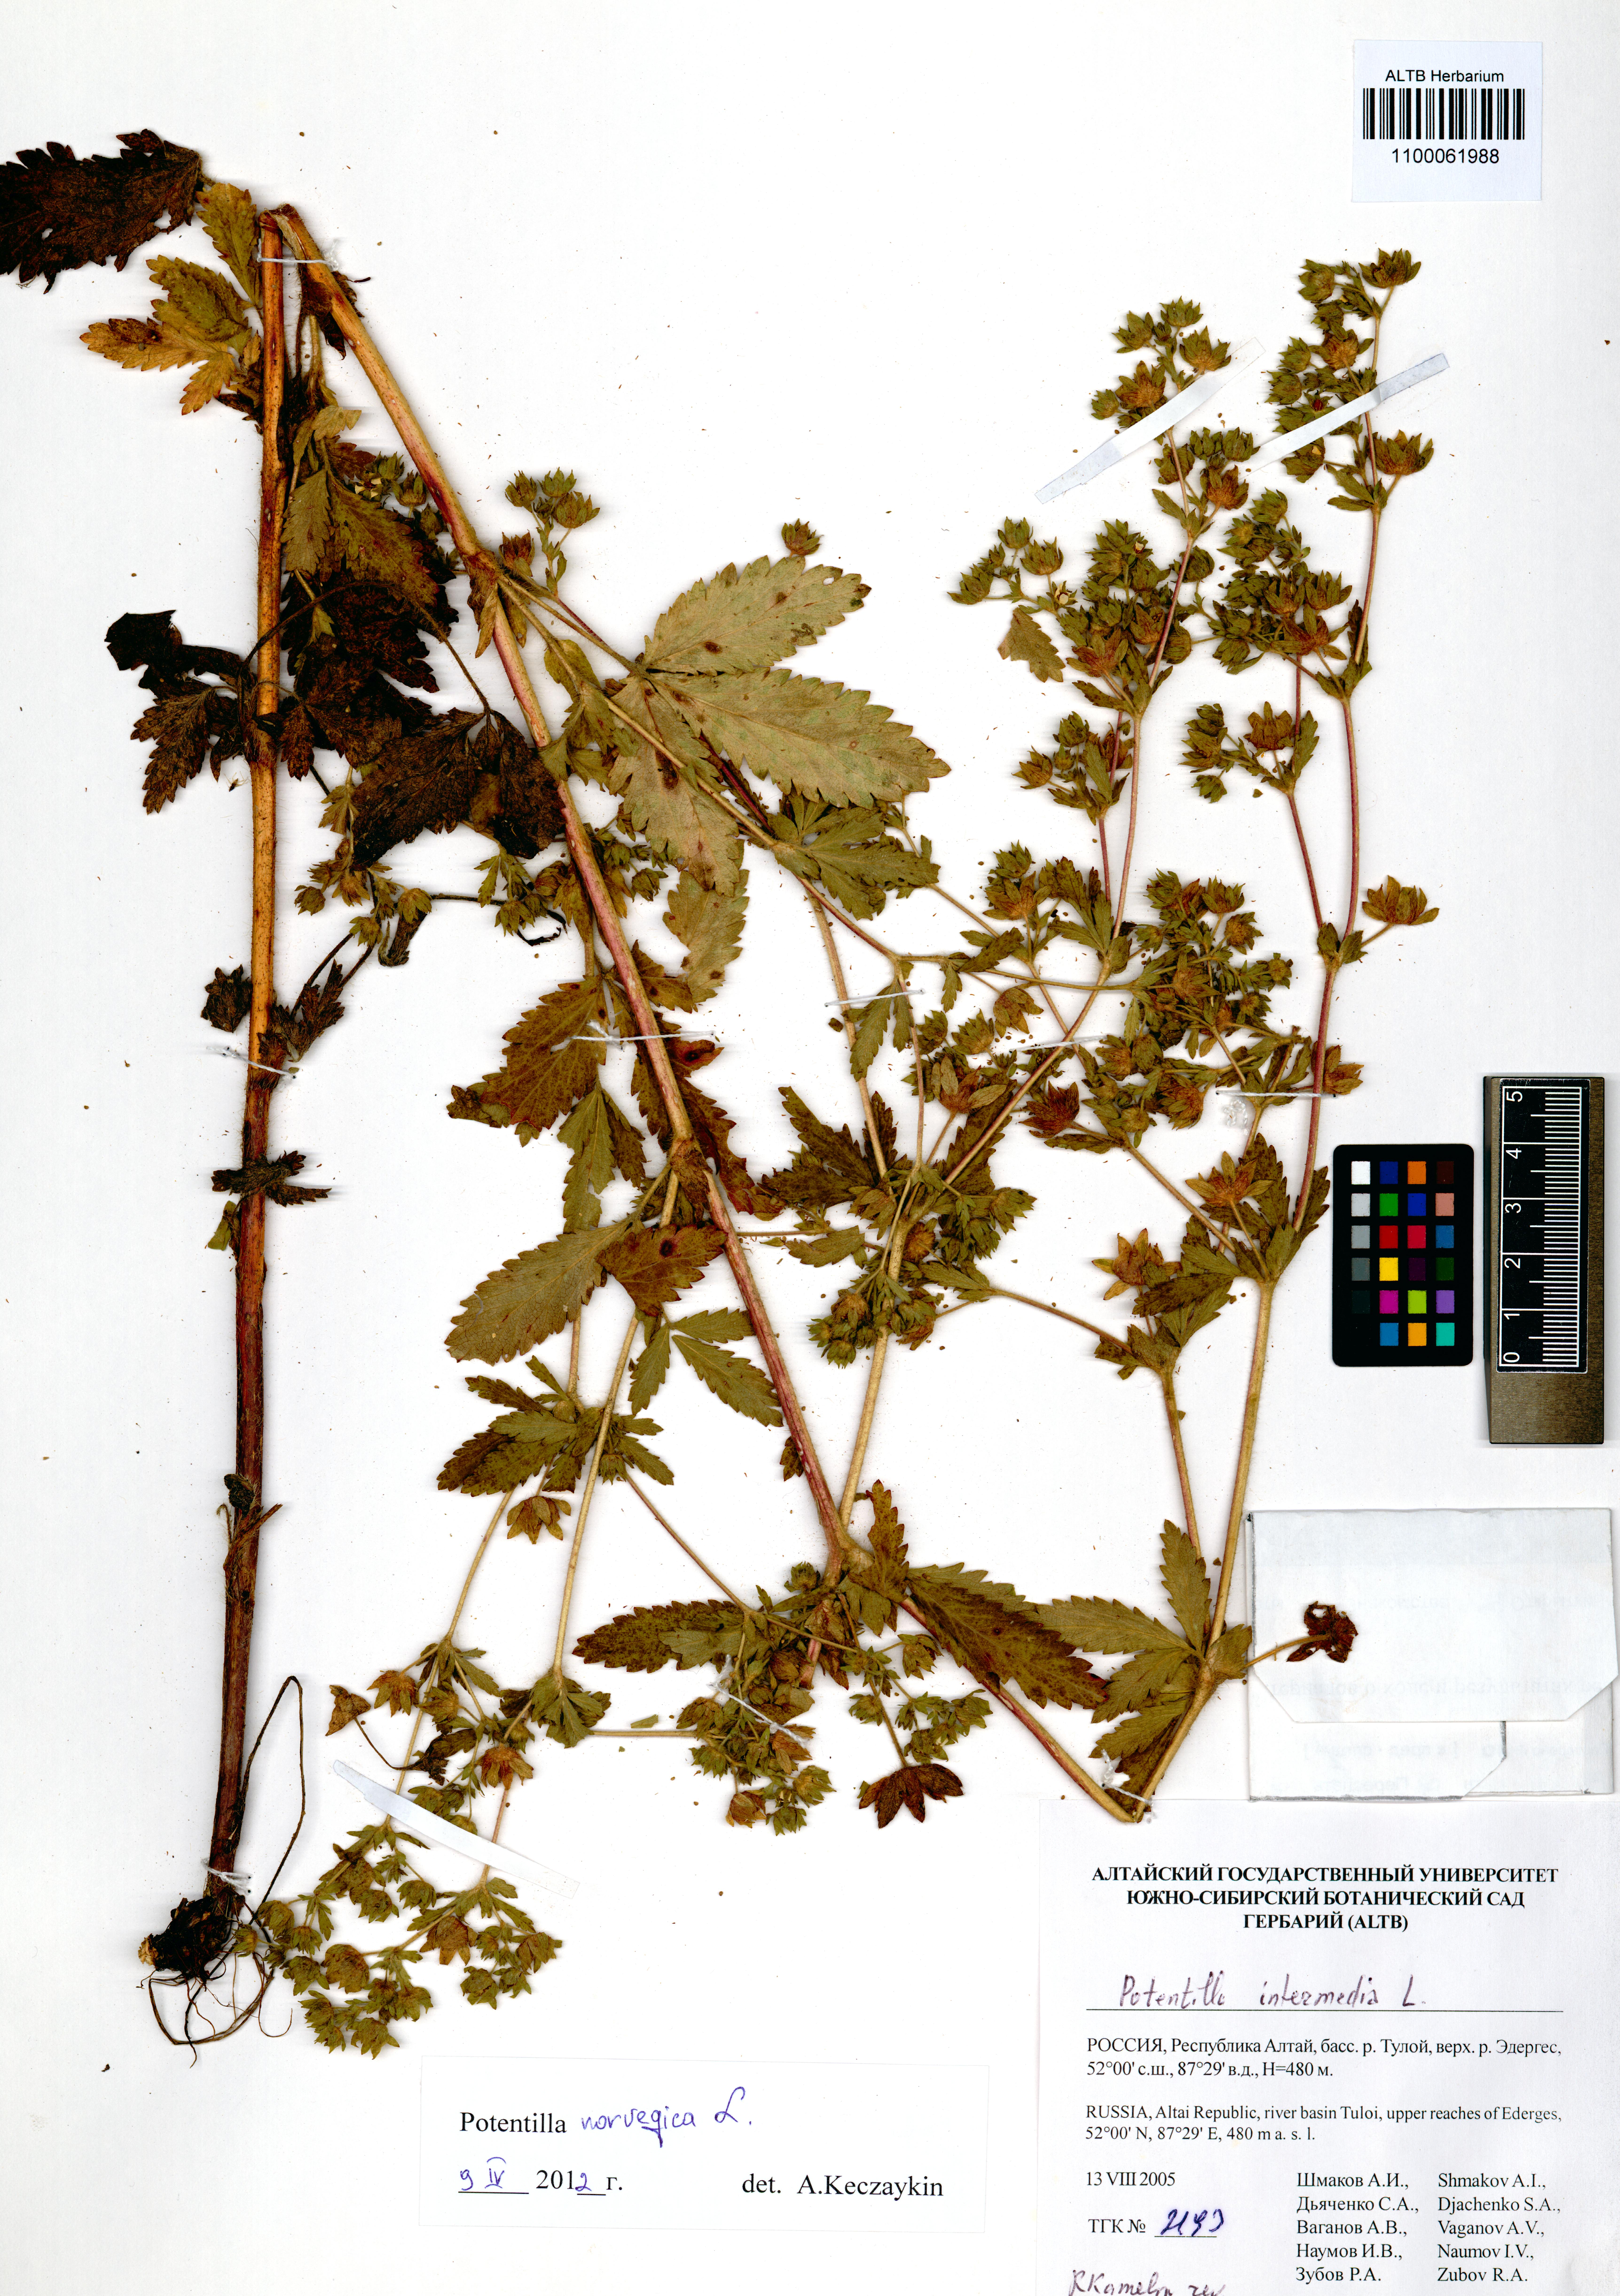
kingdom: Plantae
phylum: Tracheophyta
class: Magnoliopsida
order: Rosales
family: Rosaceae
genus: Potentilla
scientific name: Potentilla norvegica
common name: Ternate-leaved cinquefoil
